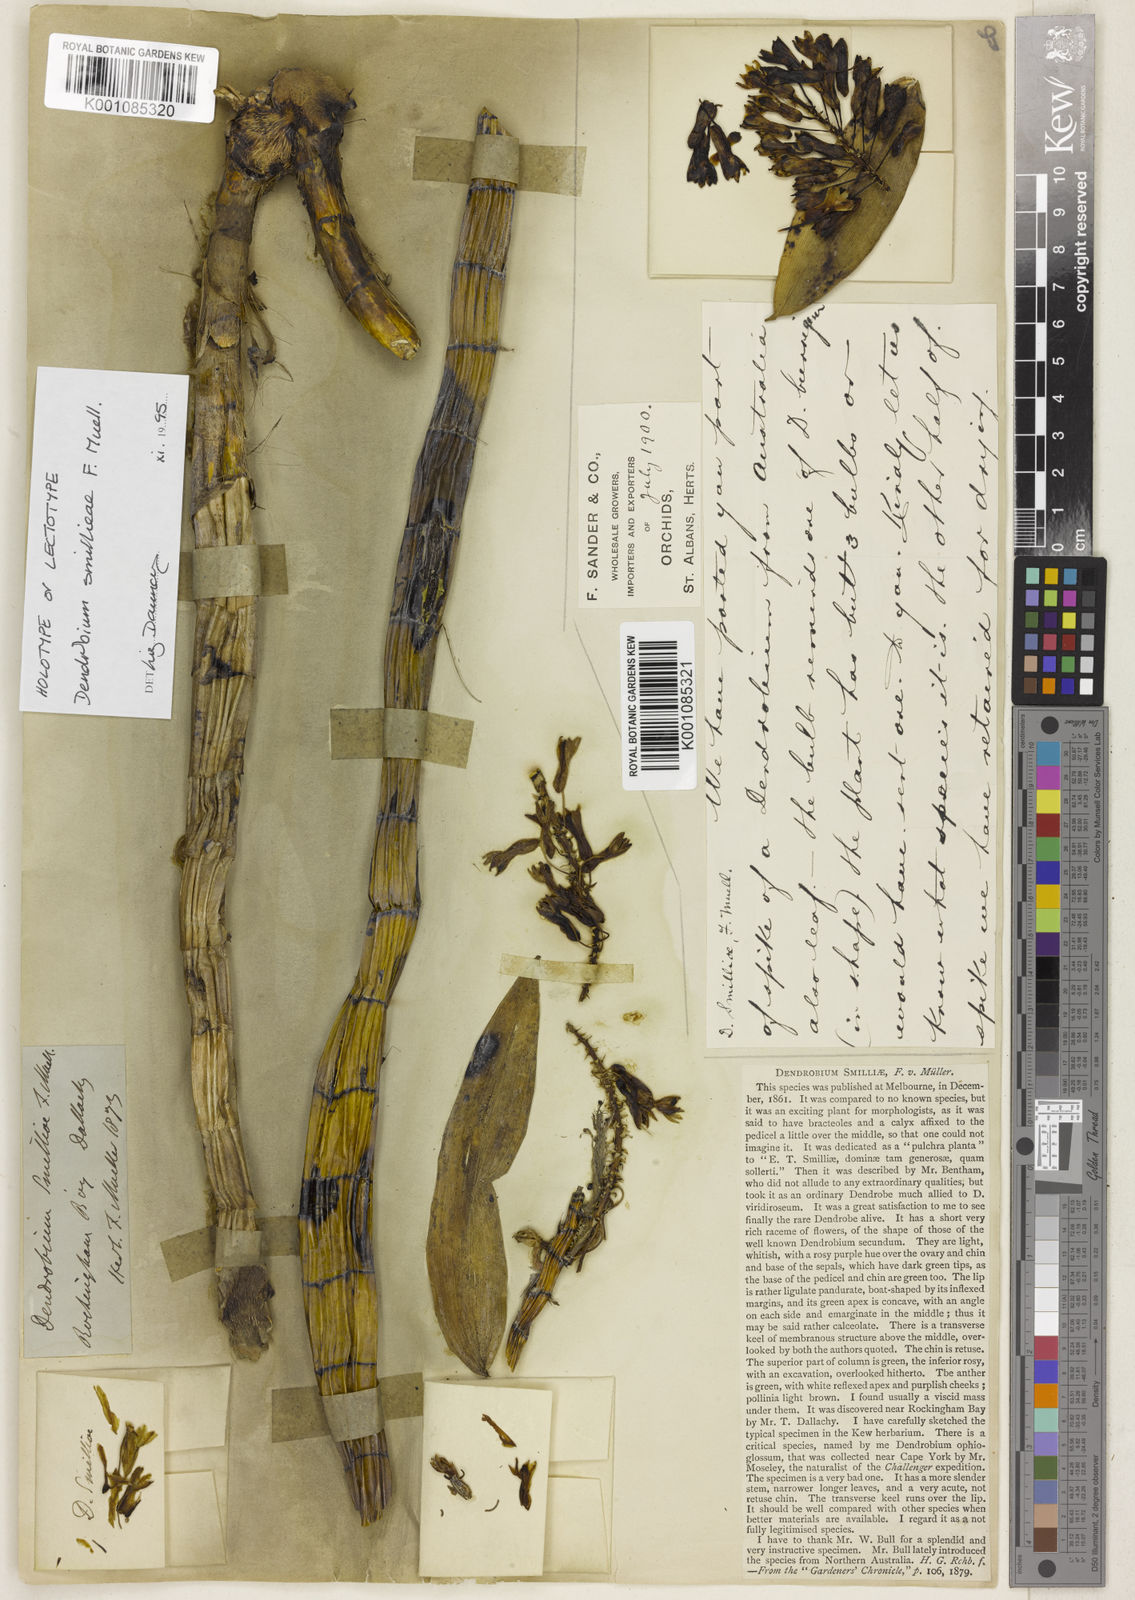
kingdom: Plantae
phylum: Tracheophyta
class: Liliopsida
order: Asparagales
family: Orchidaceae
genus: Dendrobium
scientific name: Dendrobium smillieae
